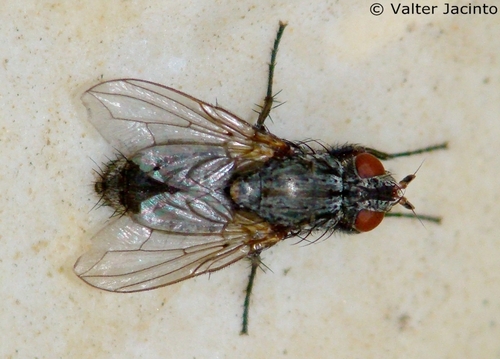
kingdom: Animalia
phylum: Arthropoda
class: Insecta
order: Diptera
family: Calliphoridae
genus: Tricogena
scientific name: Tricogena rubricosa
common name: Red-shinned woodlouse-fly
